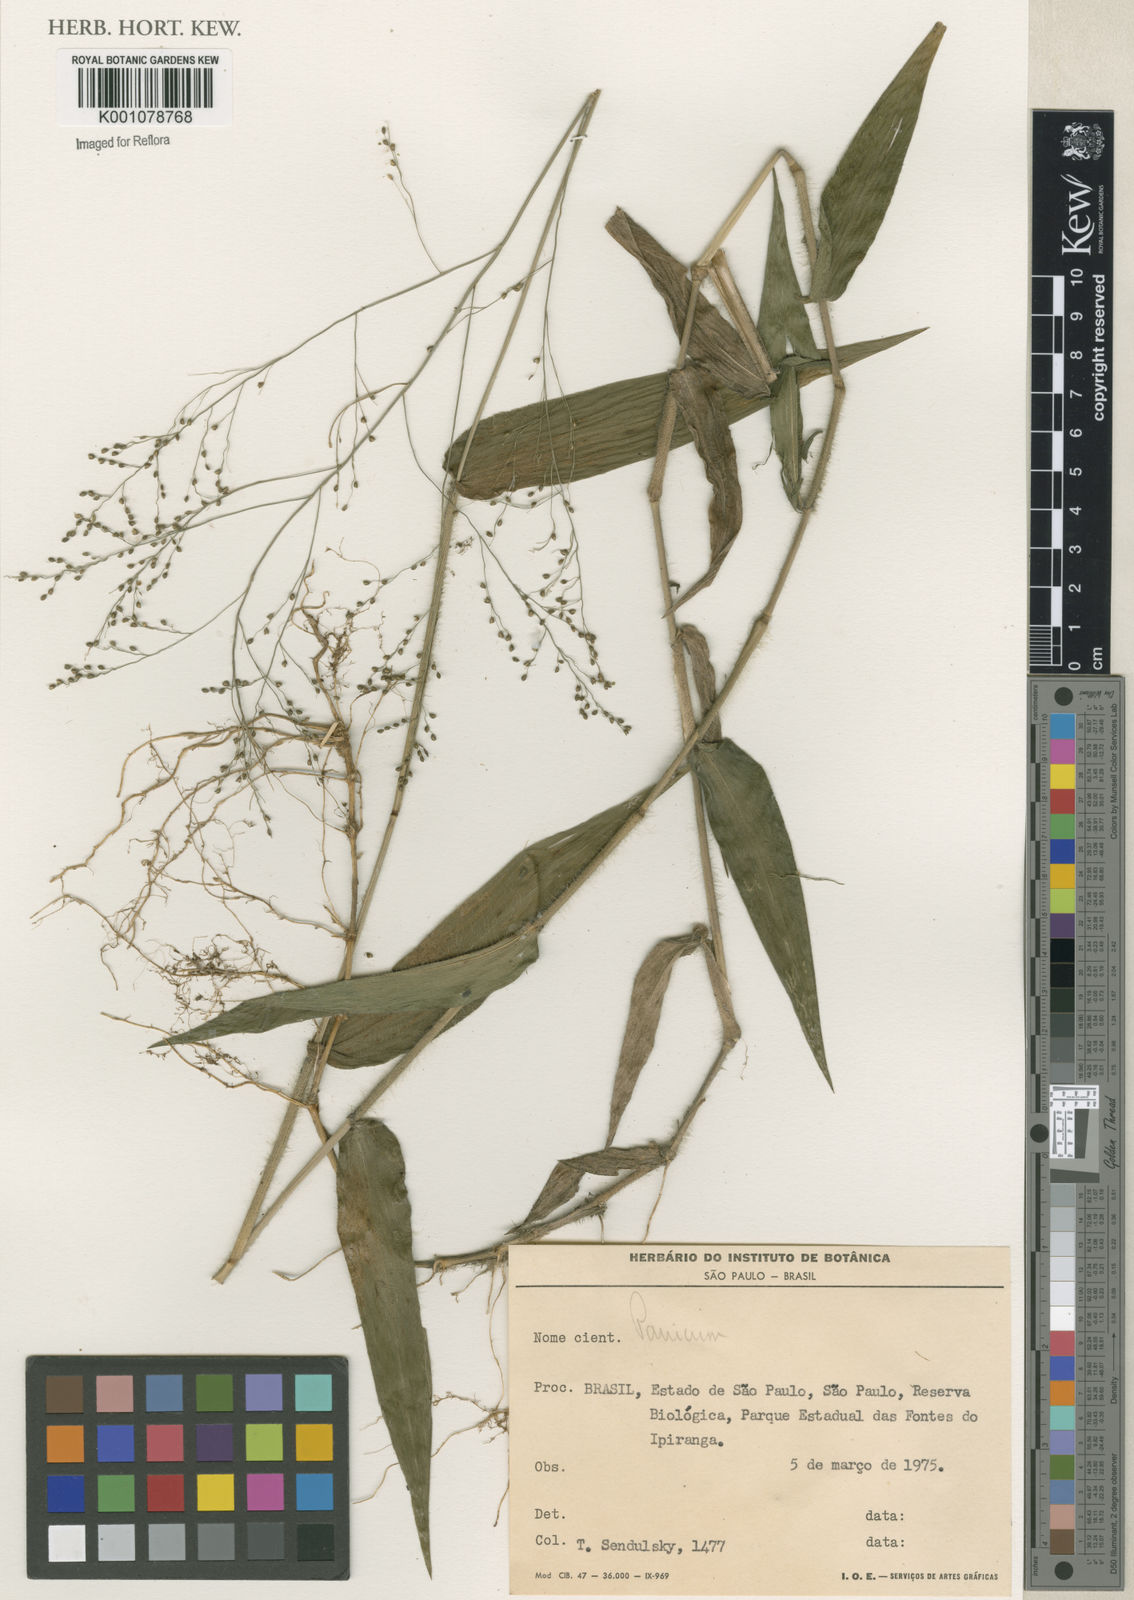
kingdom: Plantae
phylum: Tracheophyta
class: Liliopsida
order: Poales
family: Poaceae
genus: Panicum
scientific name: Panicum
